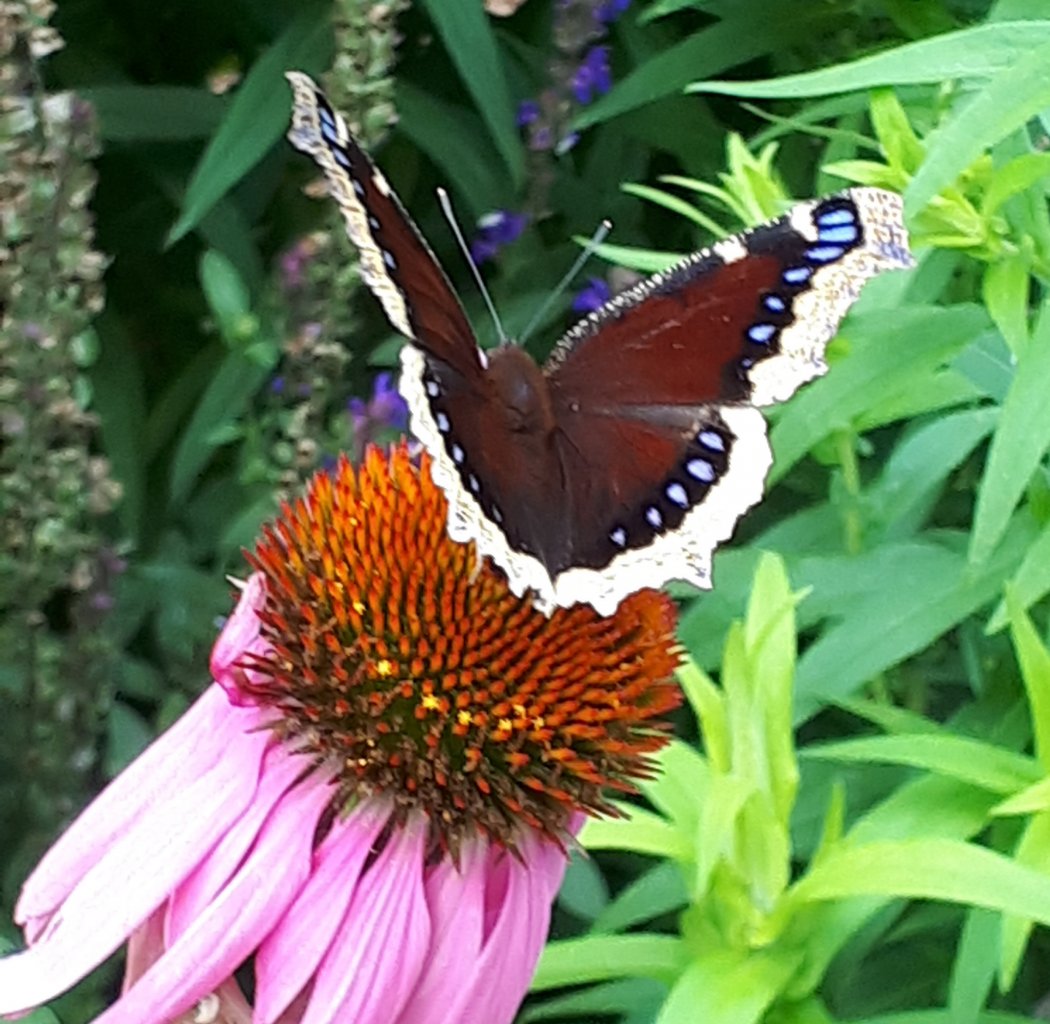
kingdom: Animalia
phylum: Arthropoda
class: Insecta
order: Lepidoptera
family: Nymphalidae
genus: Nymphalis
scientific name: Nymphalis antiopa
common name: Mourning Cloak
